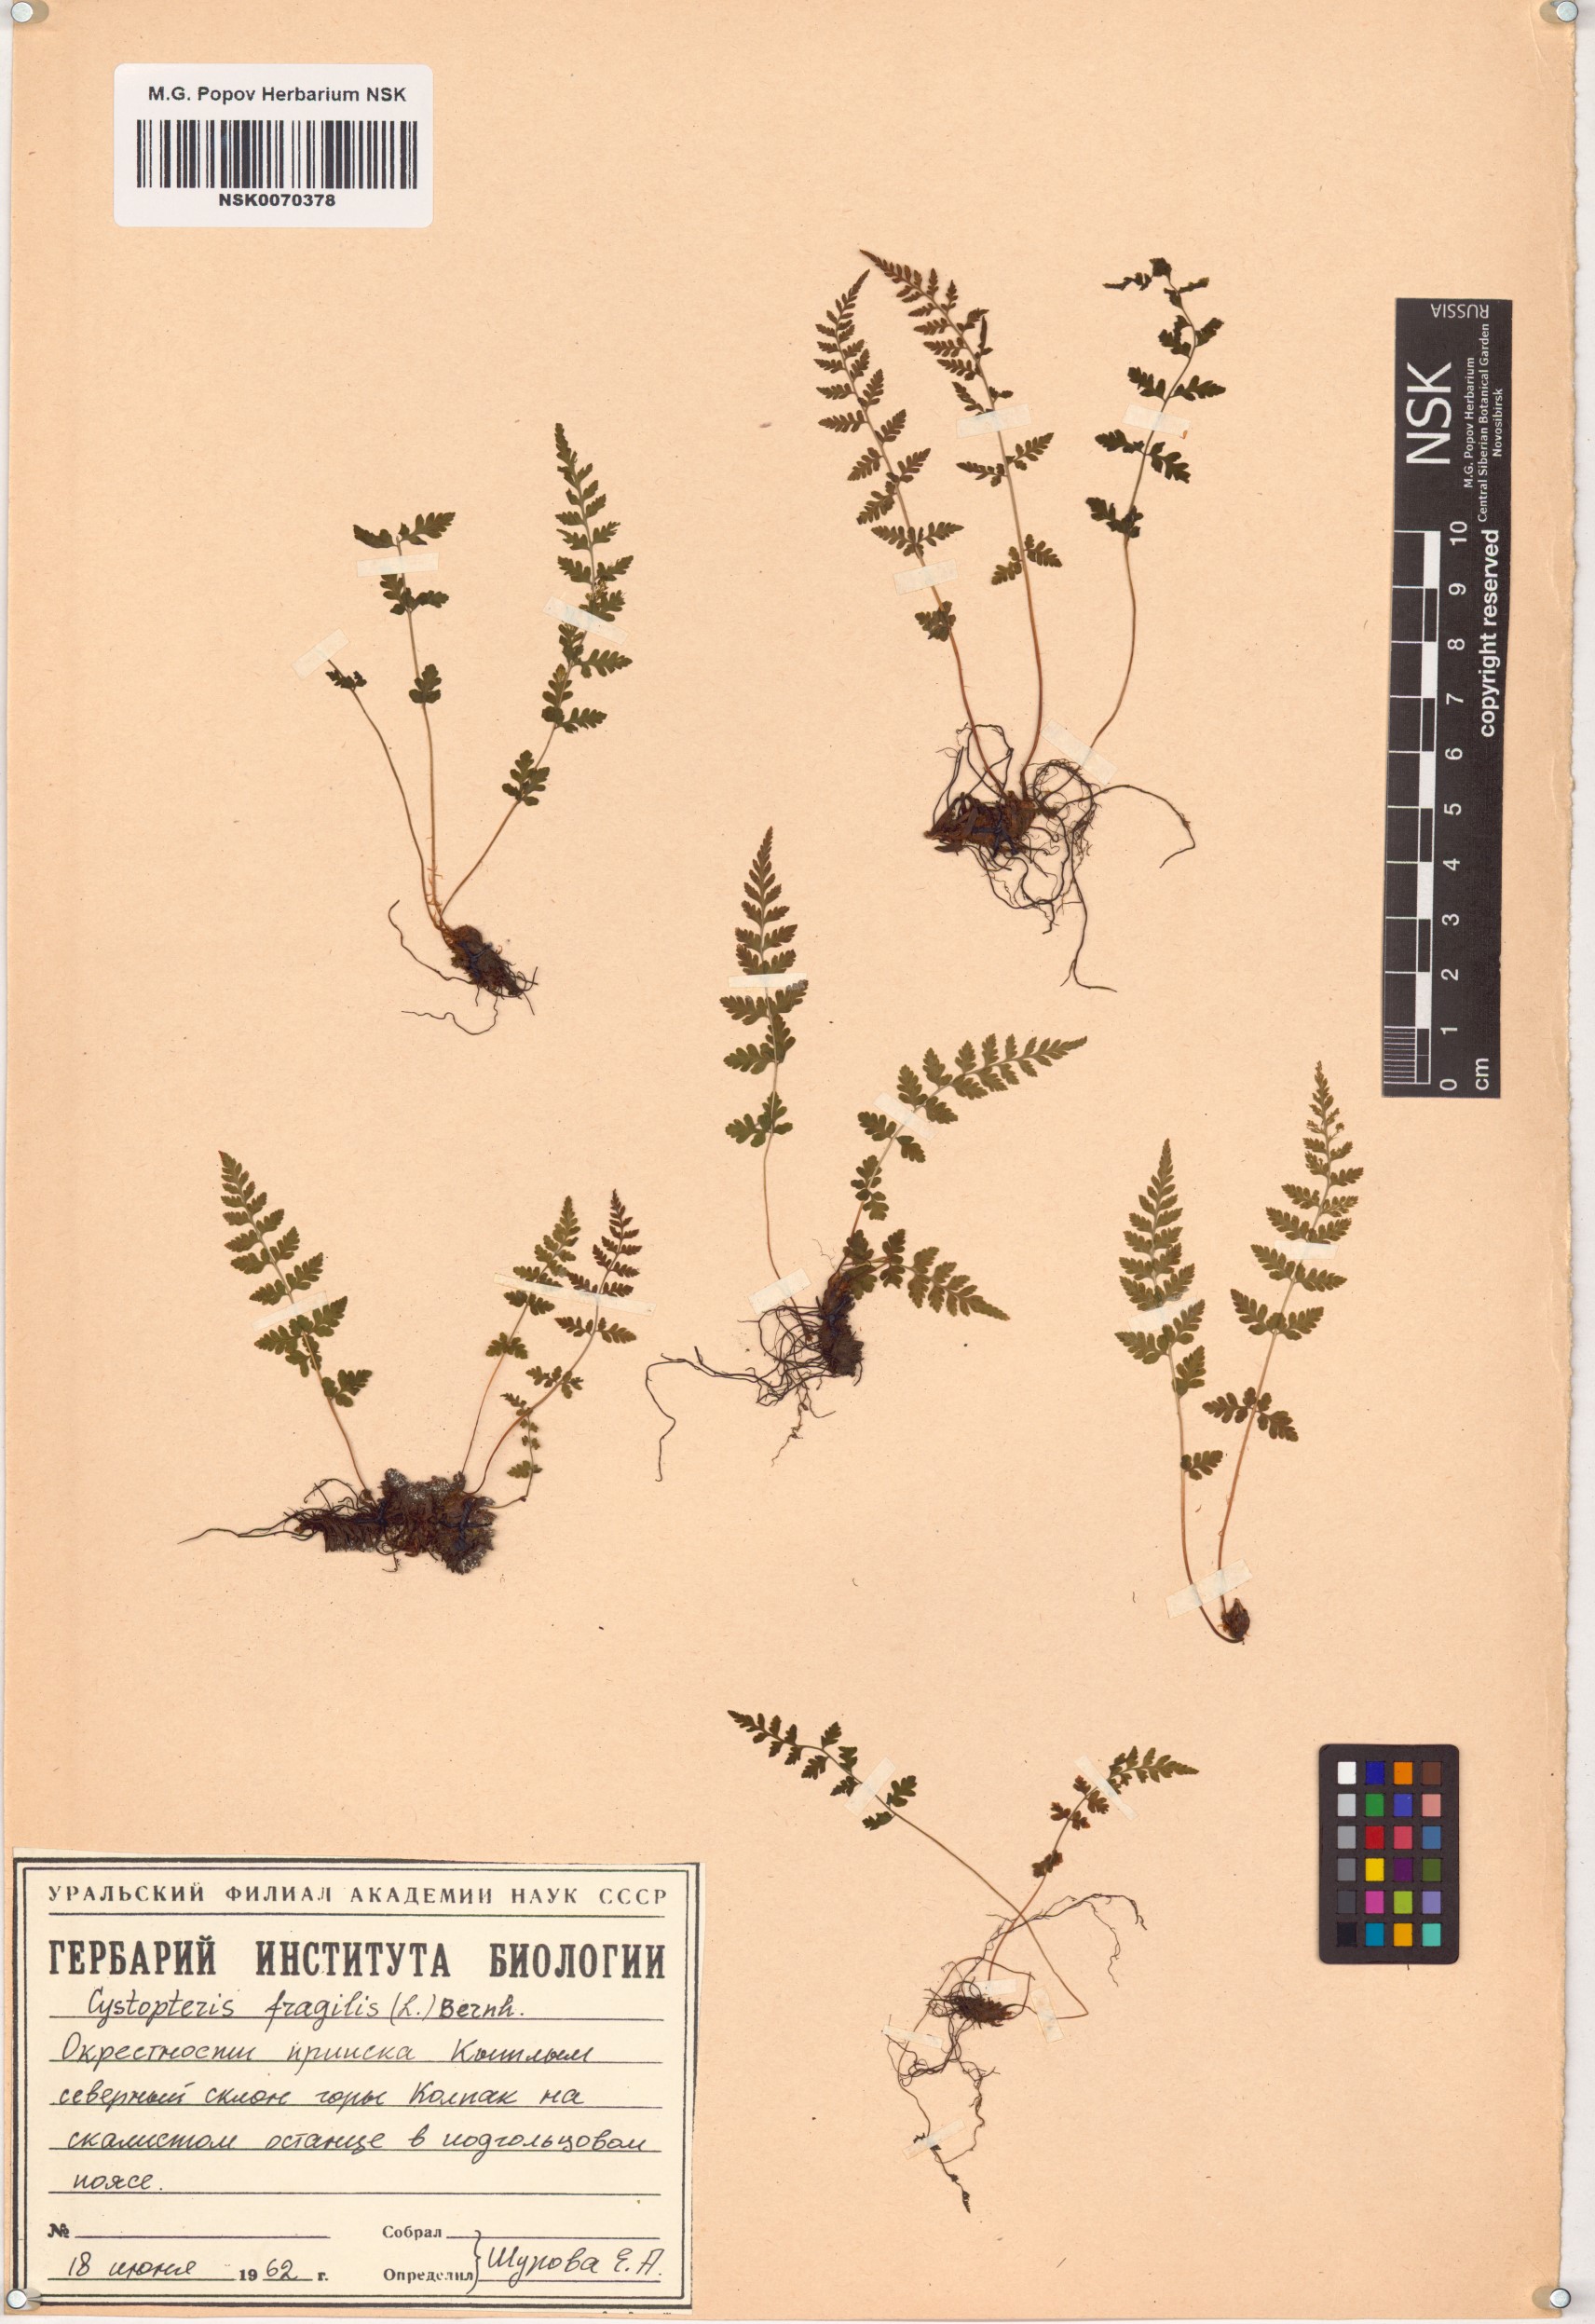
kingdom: Plantae
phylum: Tracheophyta
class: Polypodiopsida
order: Polypodiales
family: Cystopteridaceae
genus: Cystopteris
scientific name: Cystopteris fragilis
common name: Brittle bladder fern
